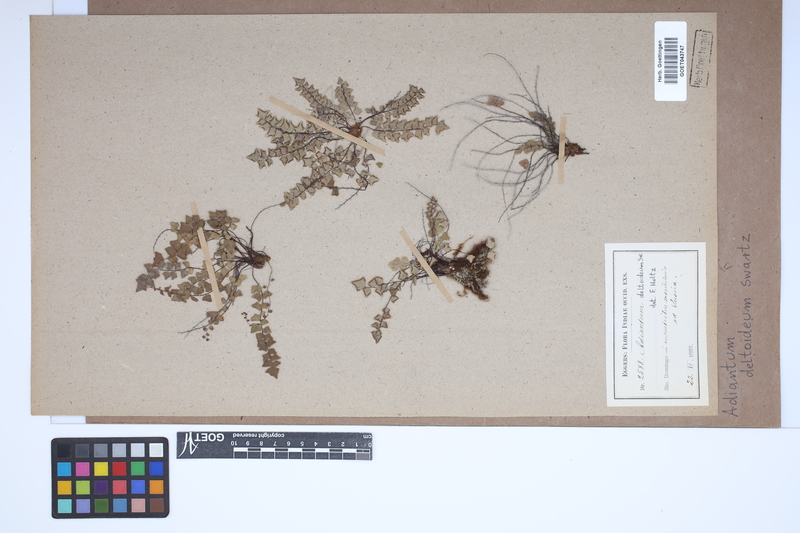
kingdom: Plantae
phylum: Tracheophyta
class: Polypodiopsida
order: Polypodiales
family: Pteridaceae
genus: Adiantum
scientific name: Adiantum deltoideum
